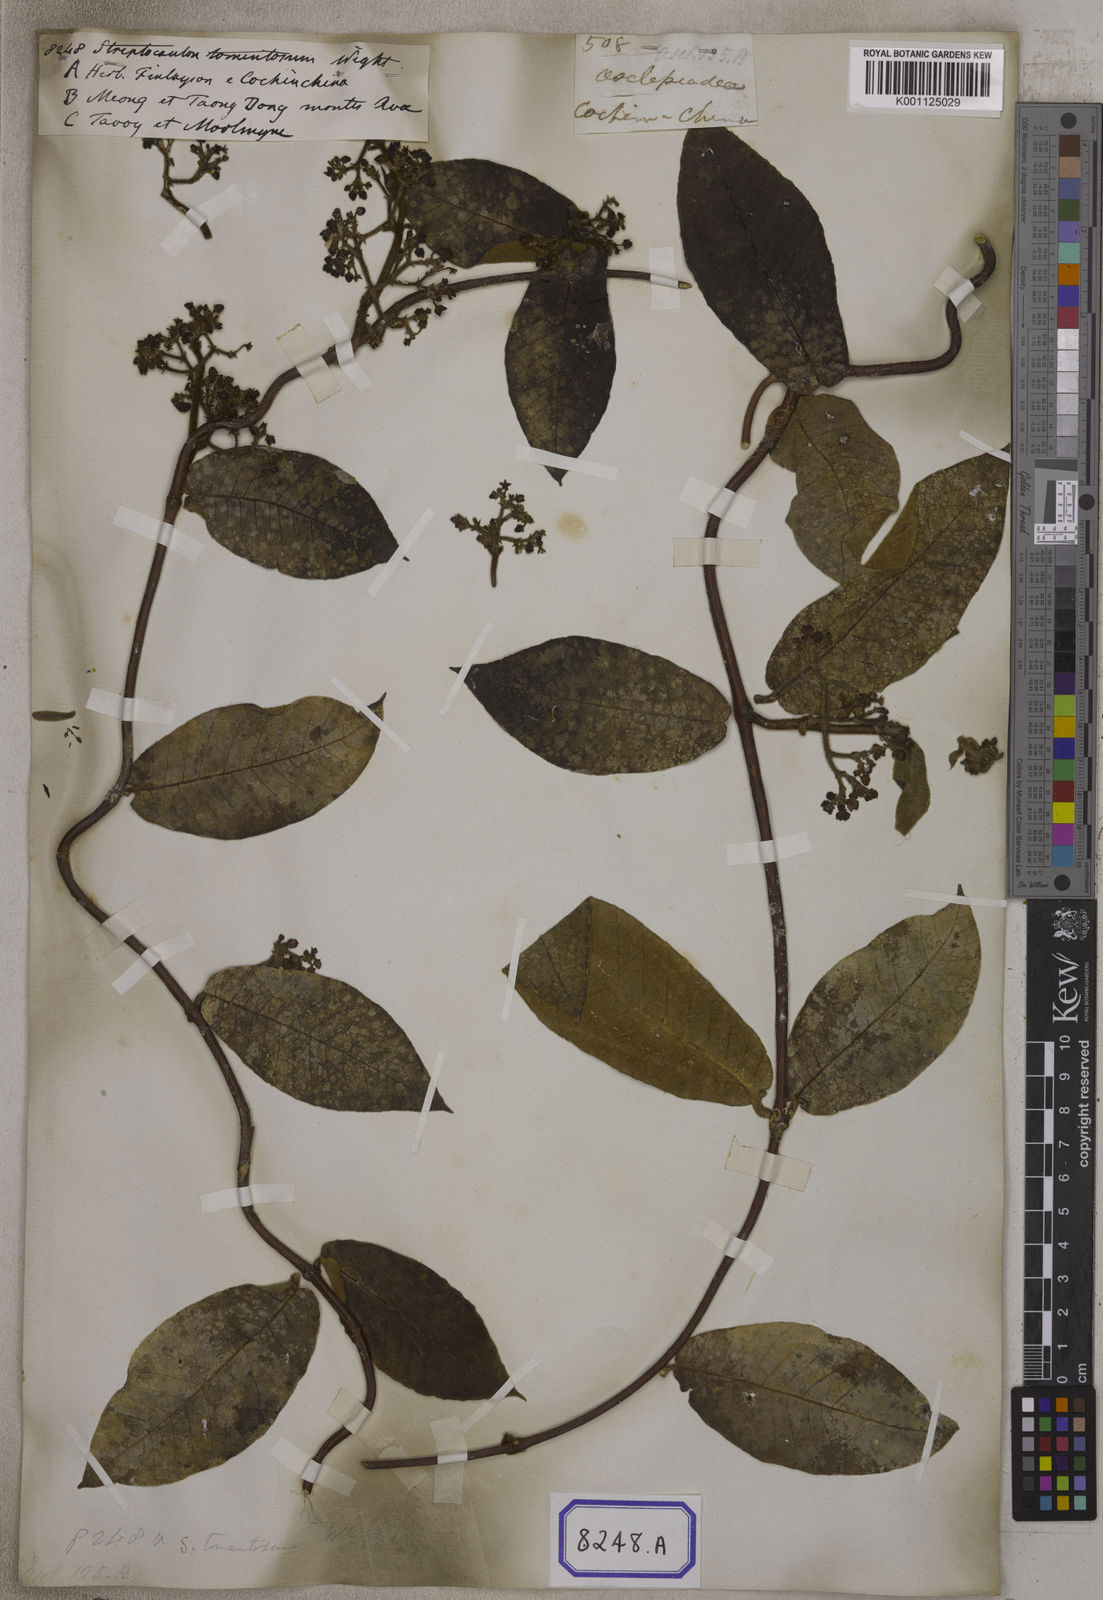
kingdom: Plantae
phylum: Tracheophyta
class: Magnoliopsida
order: Gentianales
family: Apocynaceae
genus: Streptocaulon
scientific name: Streptocaulon juventas
